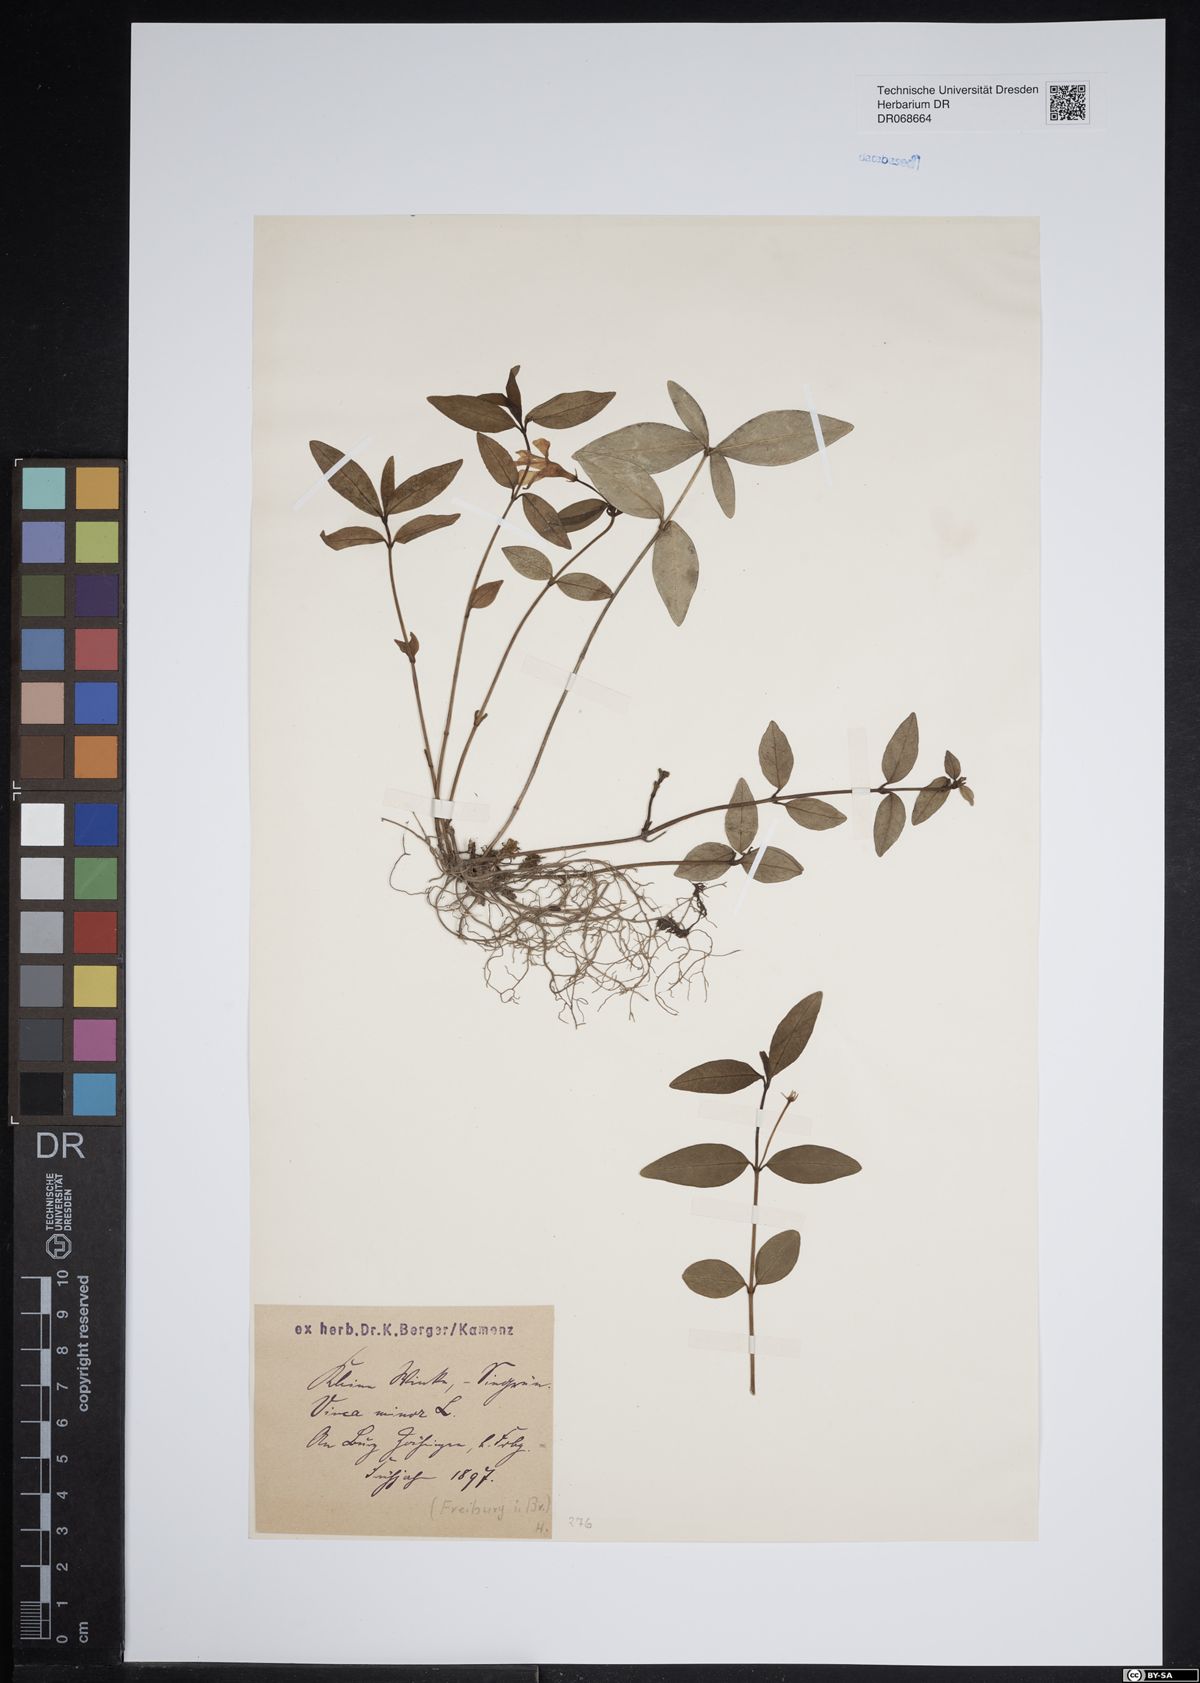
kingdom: Plantae
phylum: Tracheophyta
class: Magnoliopsida
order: Gentianales
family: Apocynaceae
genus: Vinca
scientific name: Vinca minor
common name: Lesser periwinkle
